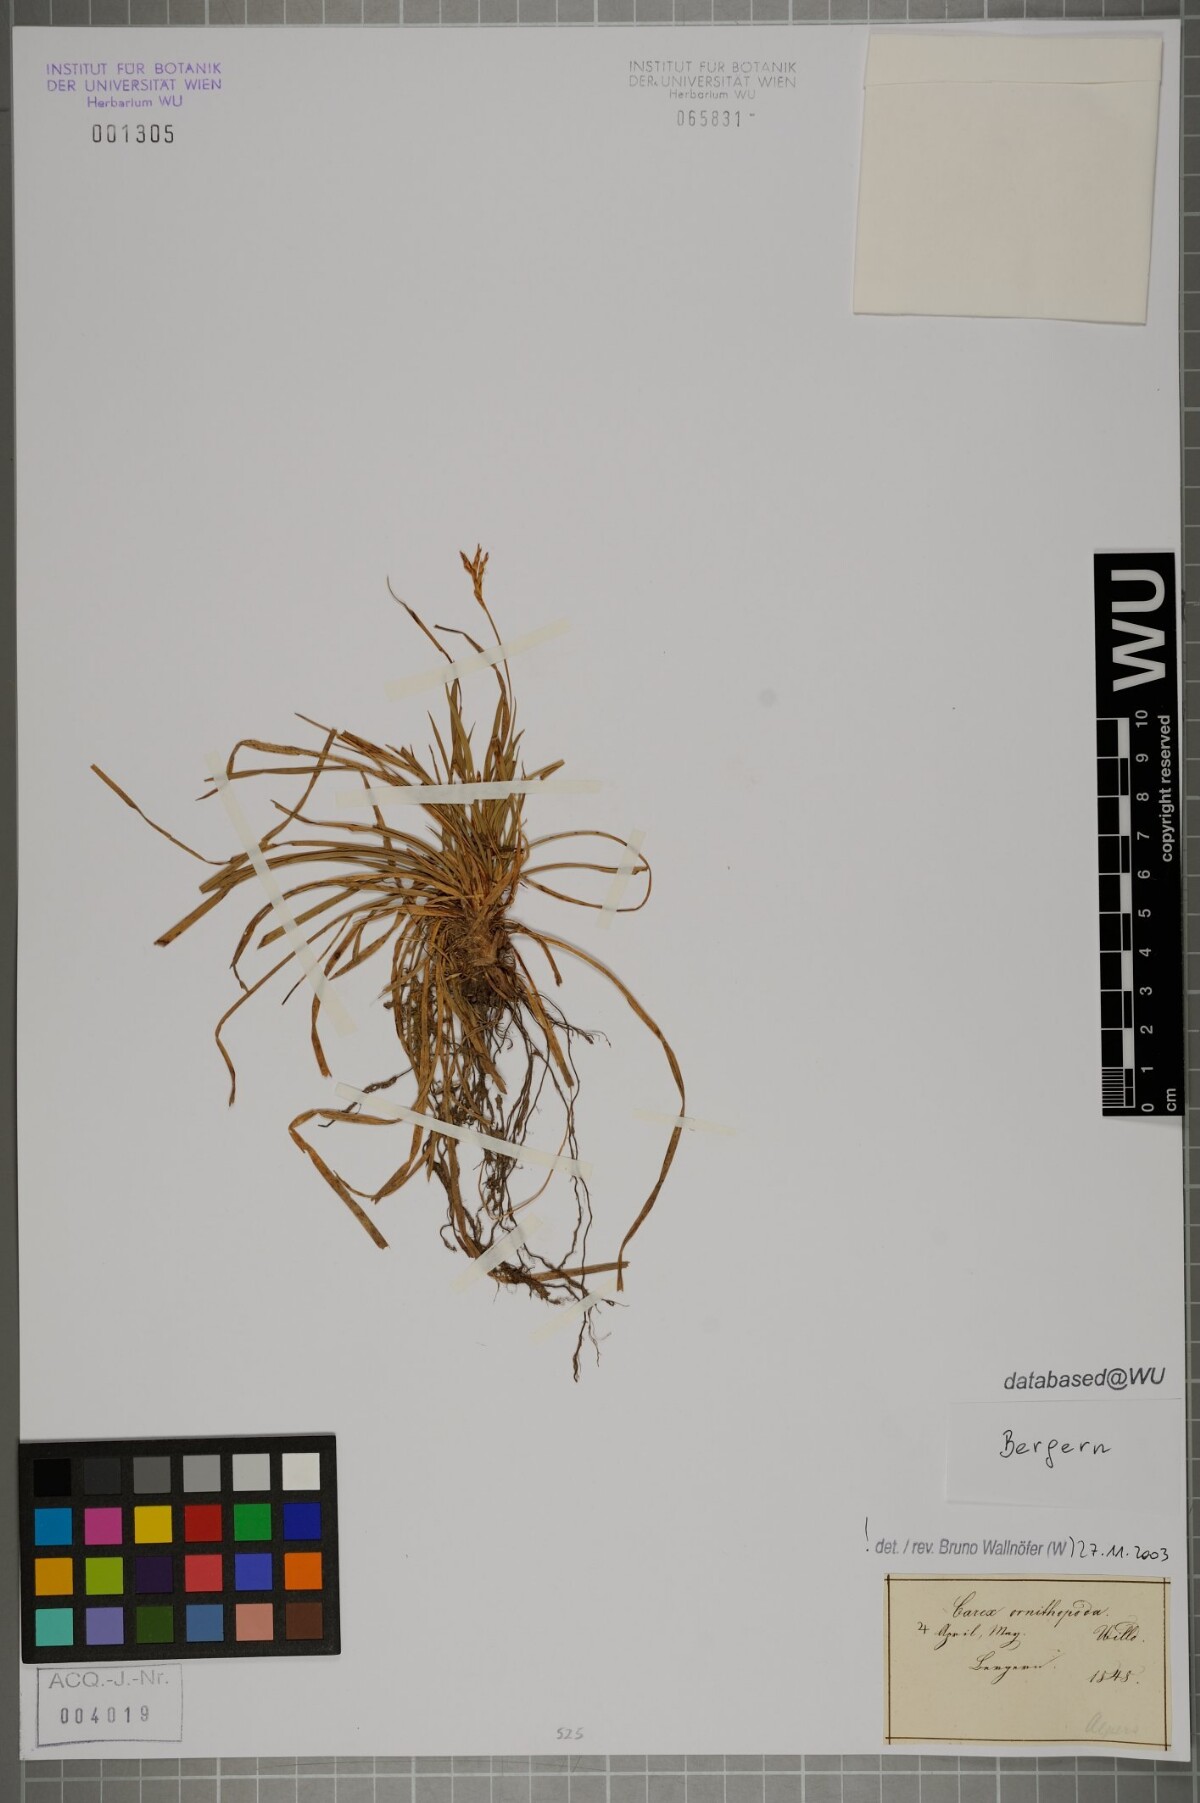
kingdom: Plantae
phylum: Tracheophyta
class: Liliopsida
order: Poales
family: Cyperaceae
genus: Carex
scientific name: Carex ornithopoda
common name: Bird's-foot sedge
